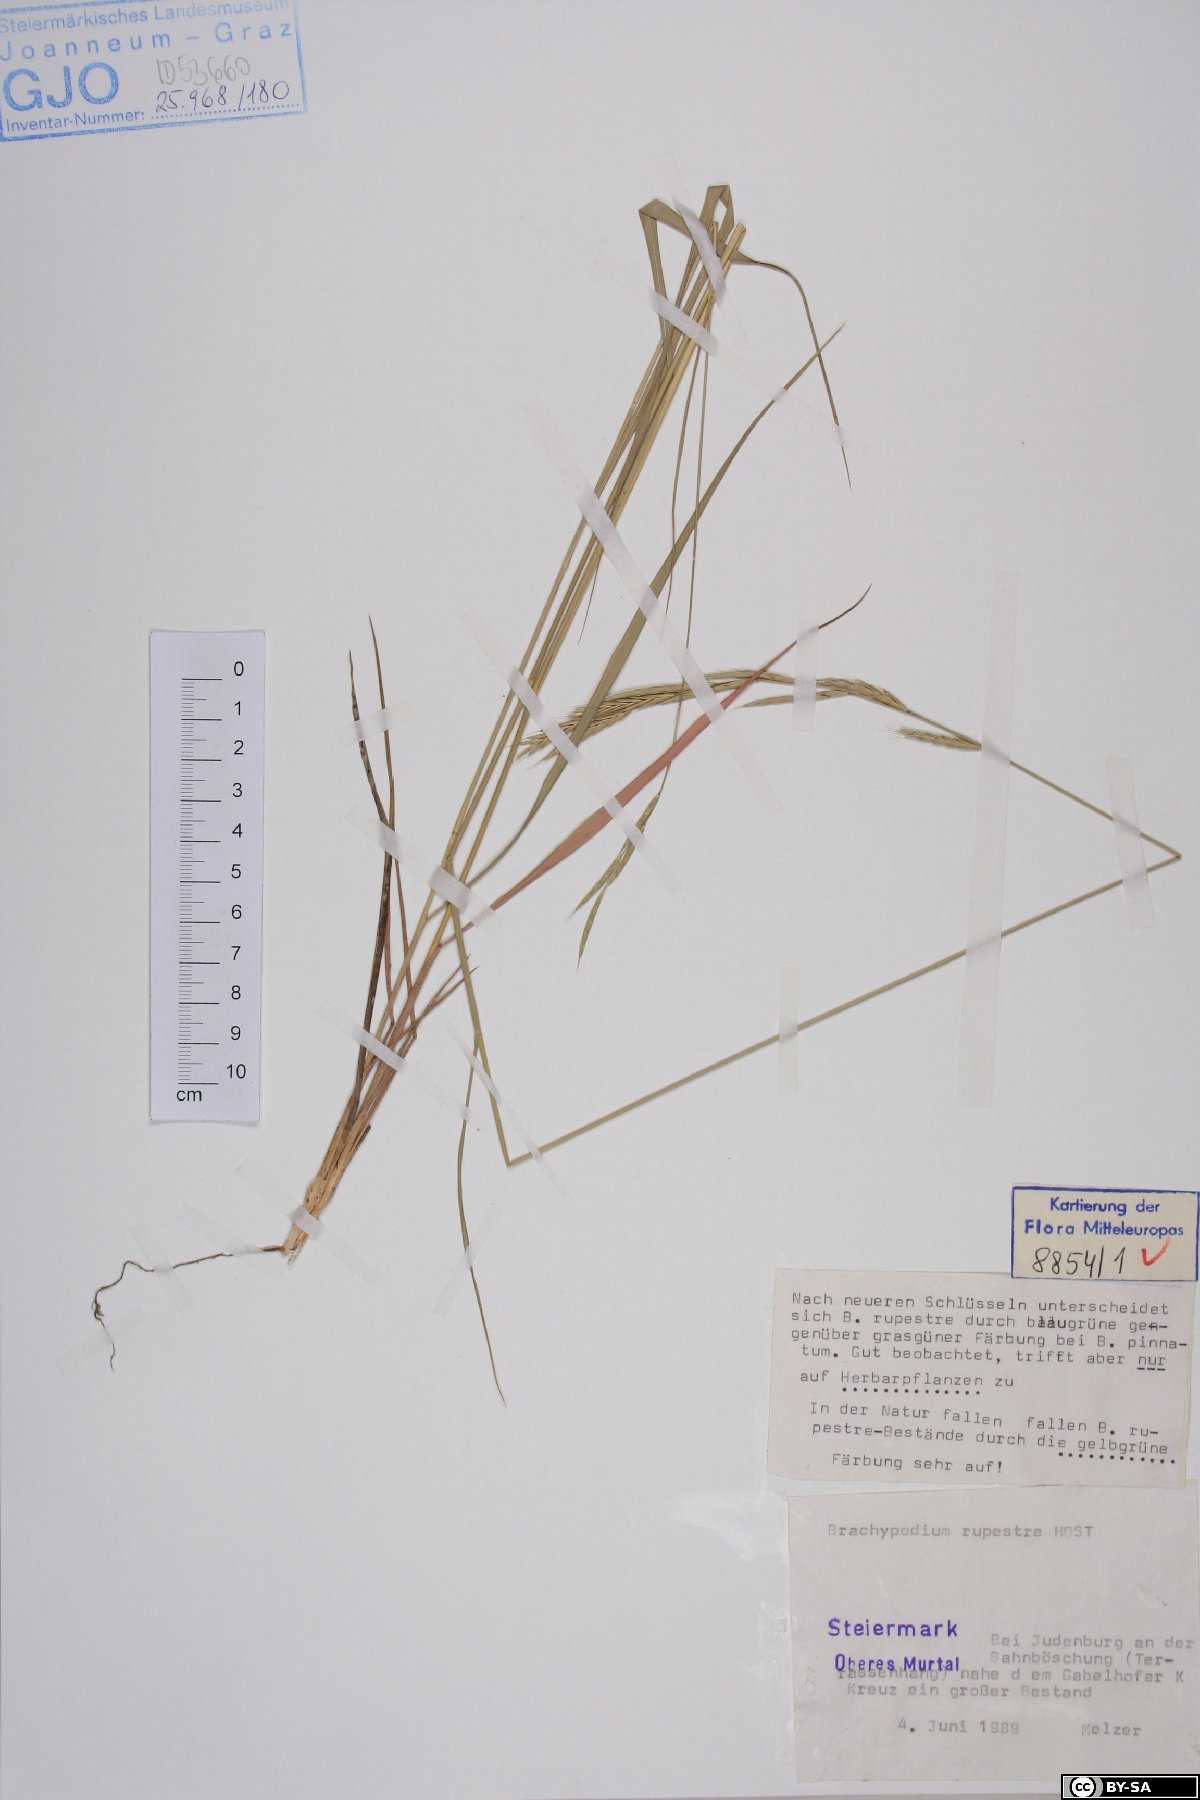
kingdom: Plantae
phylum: Tracheophyta
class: Liliopsida
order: Poales
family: Poaceae
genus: Brachypodium
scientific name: Brachypodium pinnatum
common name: Tor grass
